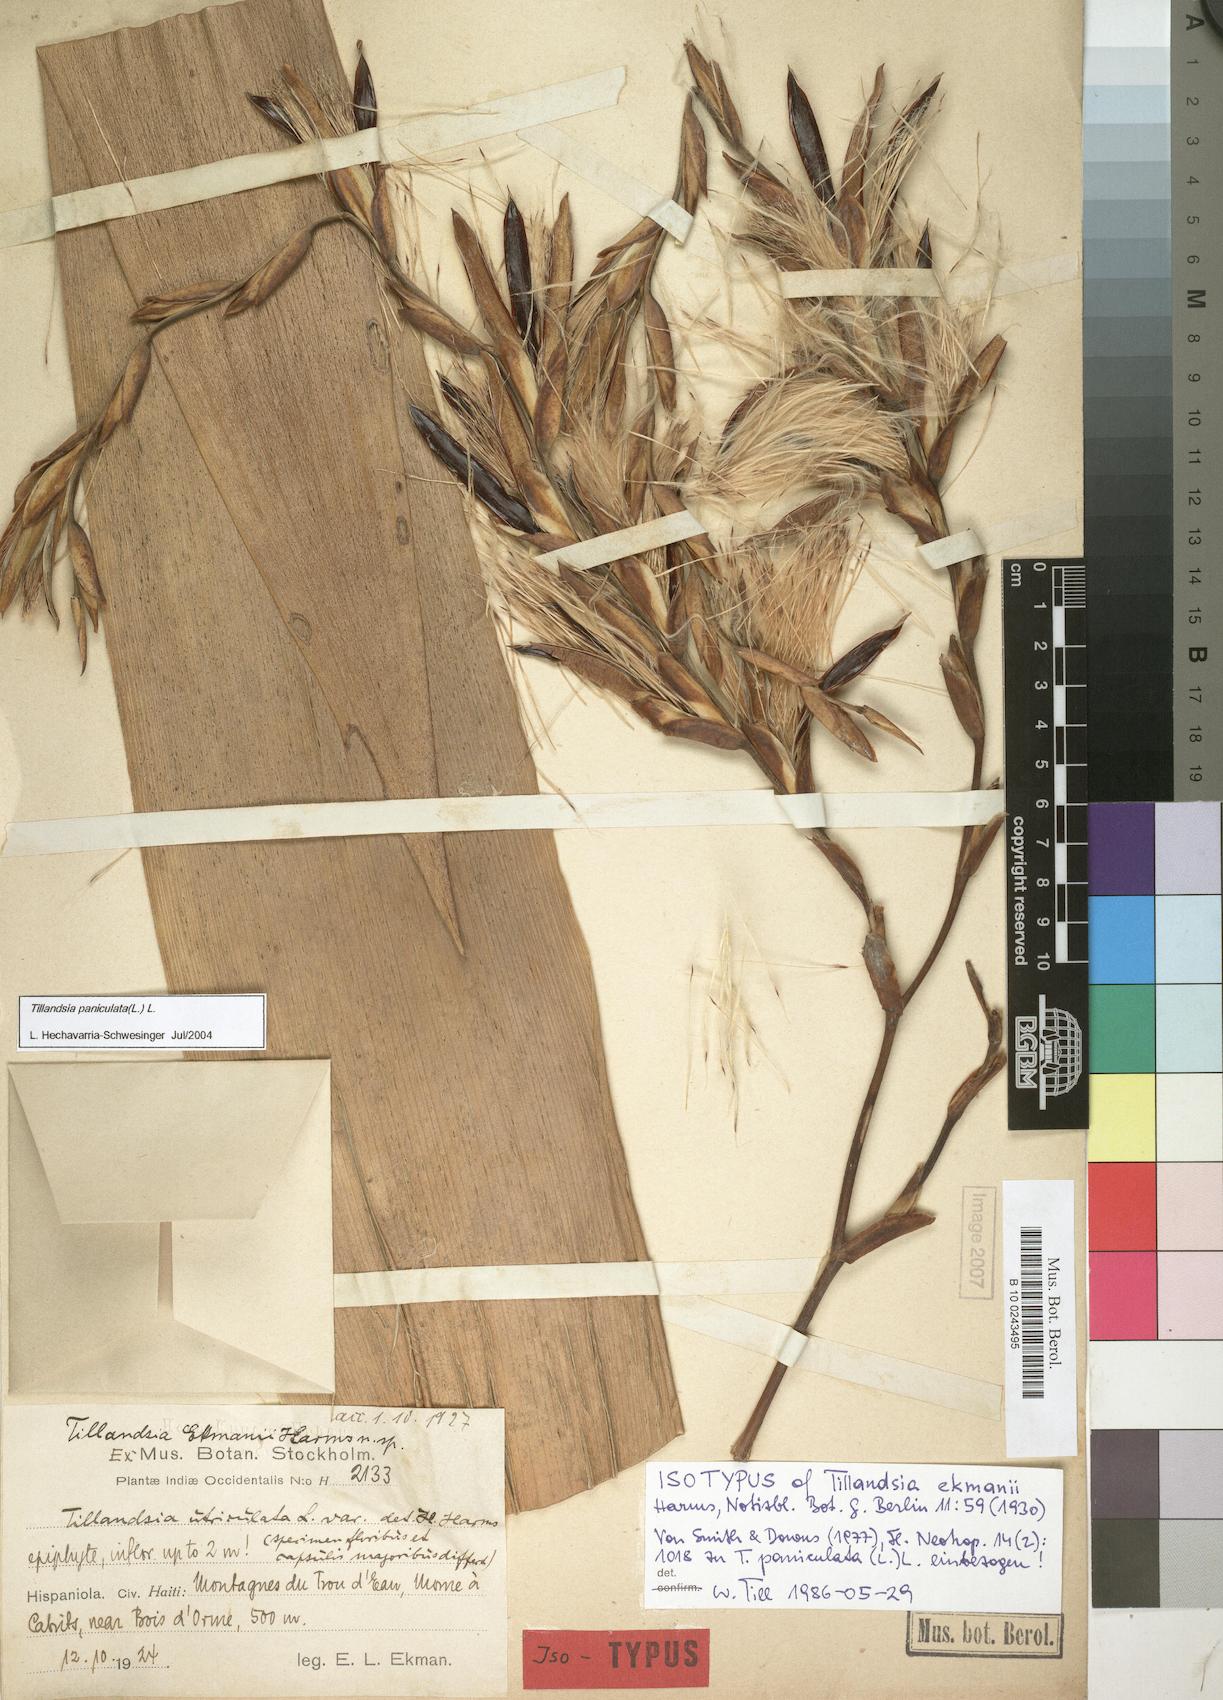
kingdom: Plantae
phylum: Tracheophyta
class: Liliopsida
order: Poales
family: Bromeliaceae
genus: Tillandsia
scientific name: Tillandsia paniculata
